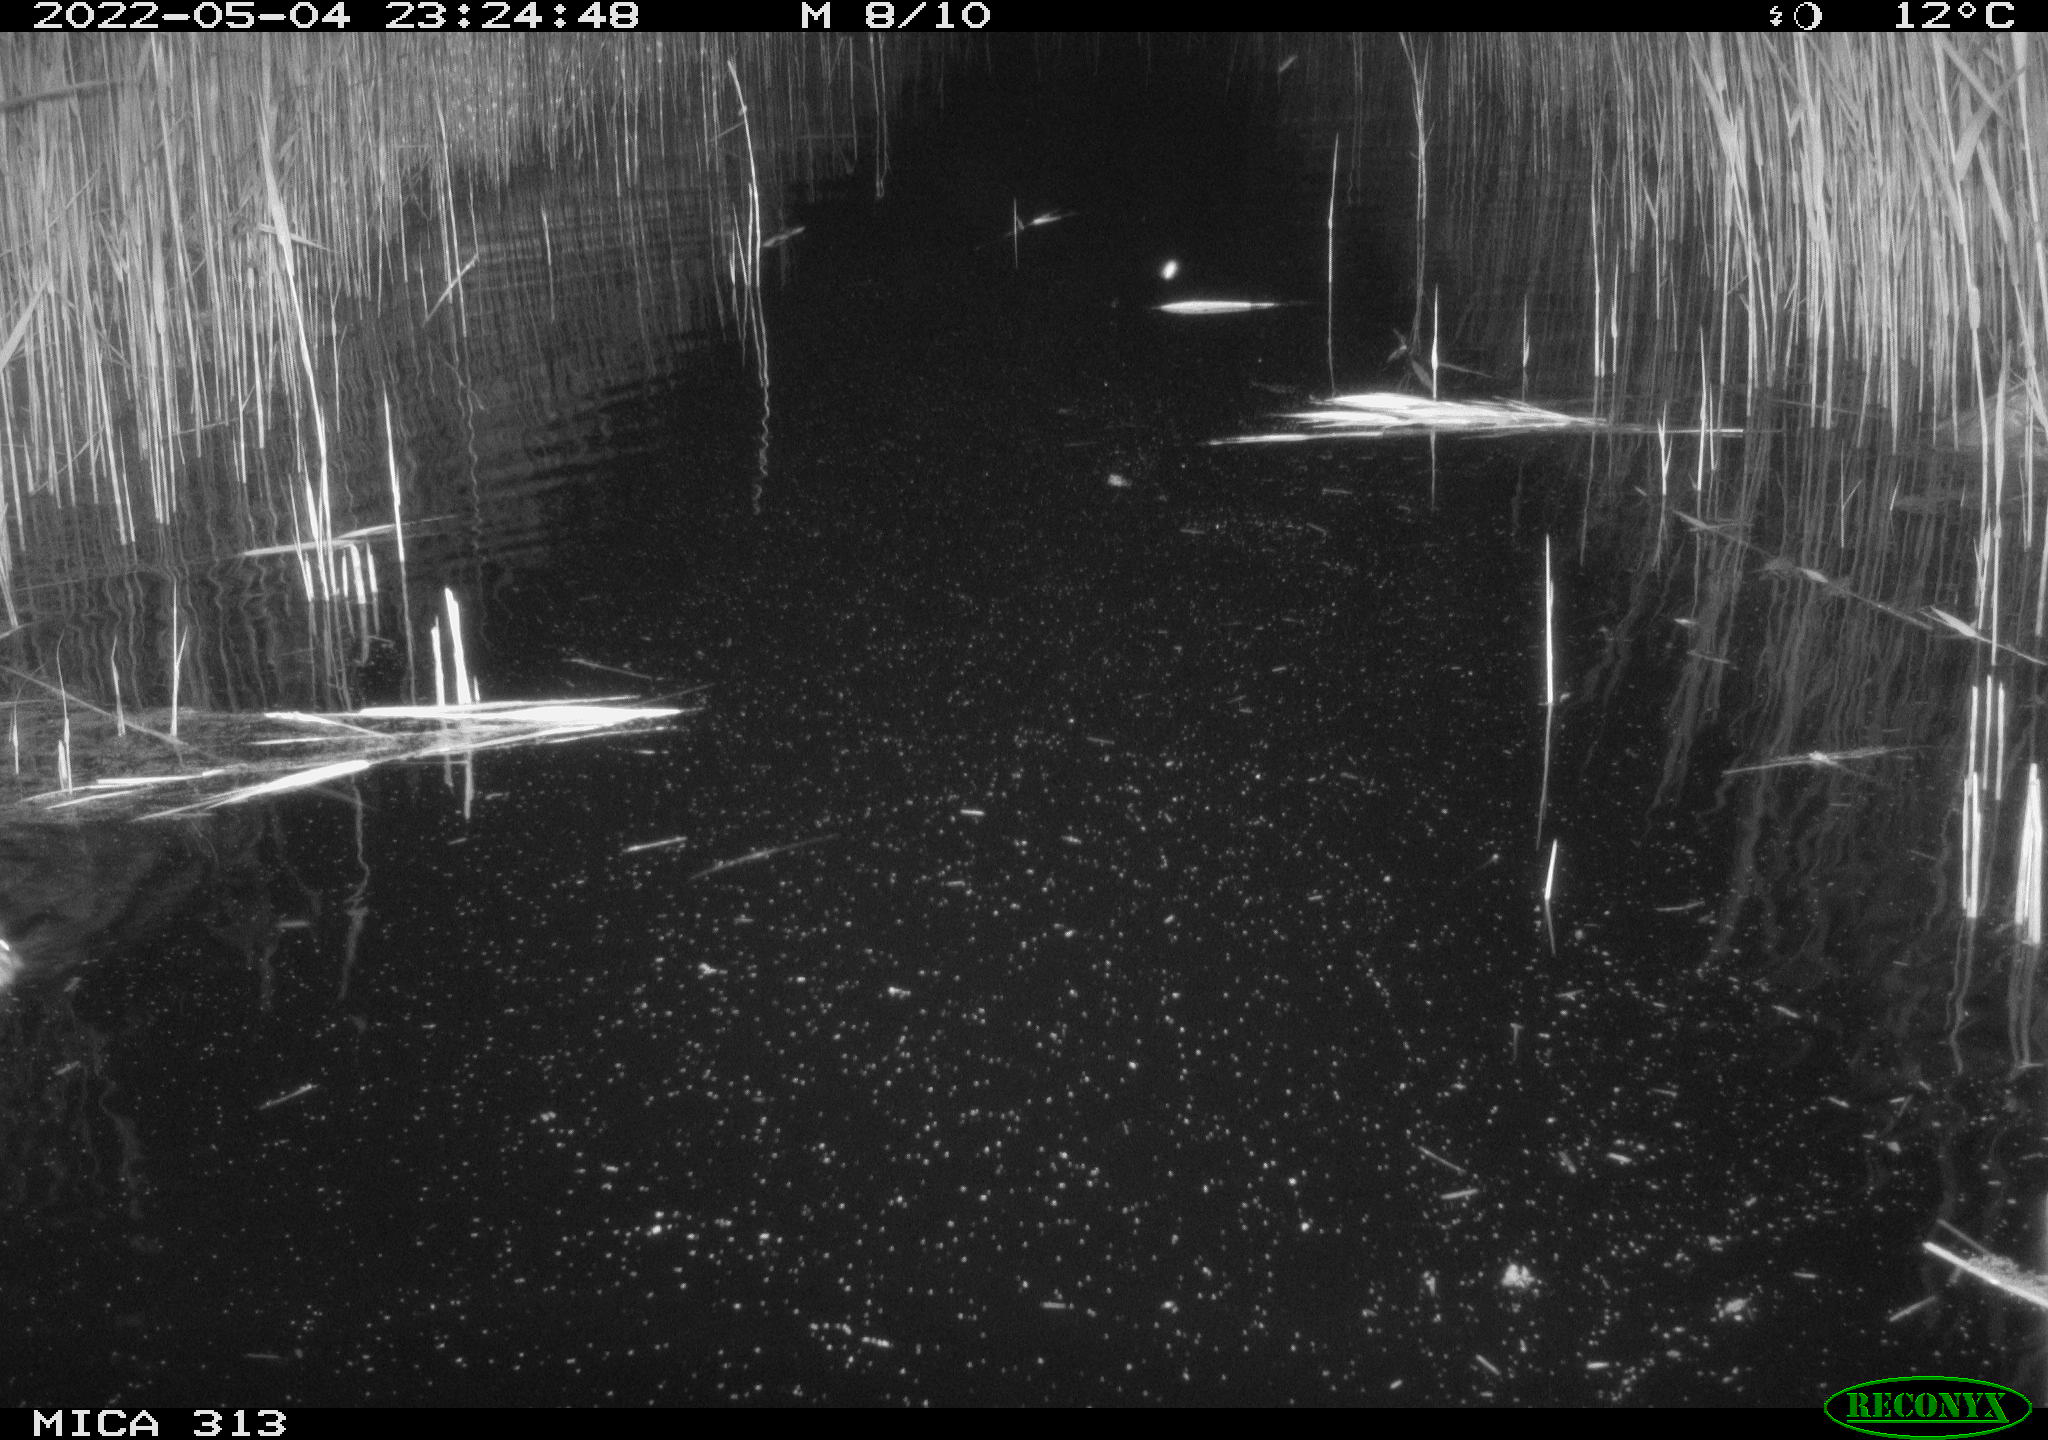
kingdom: Animalia
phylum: Chordata
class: Mammalia
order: Rodentia
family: Cricetidae
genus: Ondatra
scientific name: Ondatra zibethicus
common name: Muskrat
